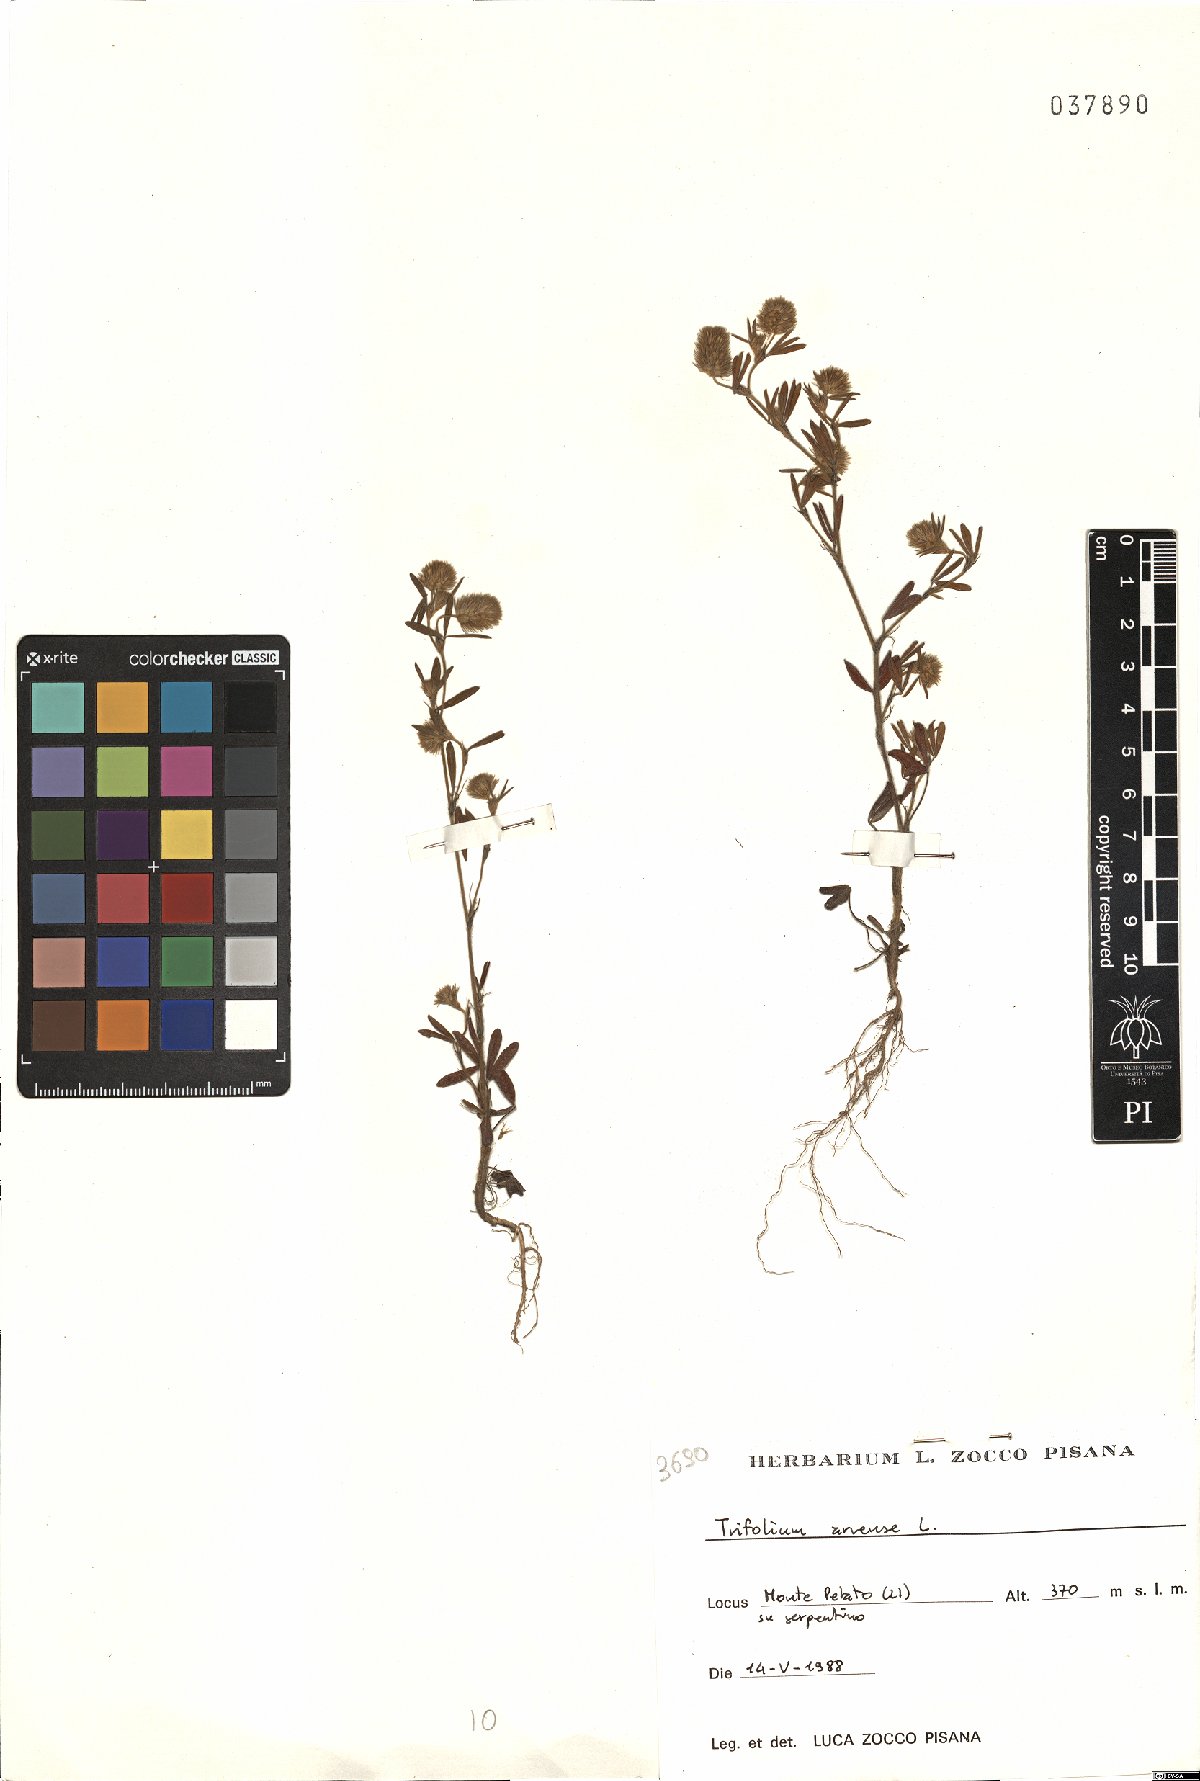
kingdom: Plantae
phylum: Tracheophyta
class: Magnoliopsida
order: Fabales
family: Fabaceae
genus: Trifolium
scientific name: Trifolium arvense
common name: Hare's-foot clover
